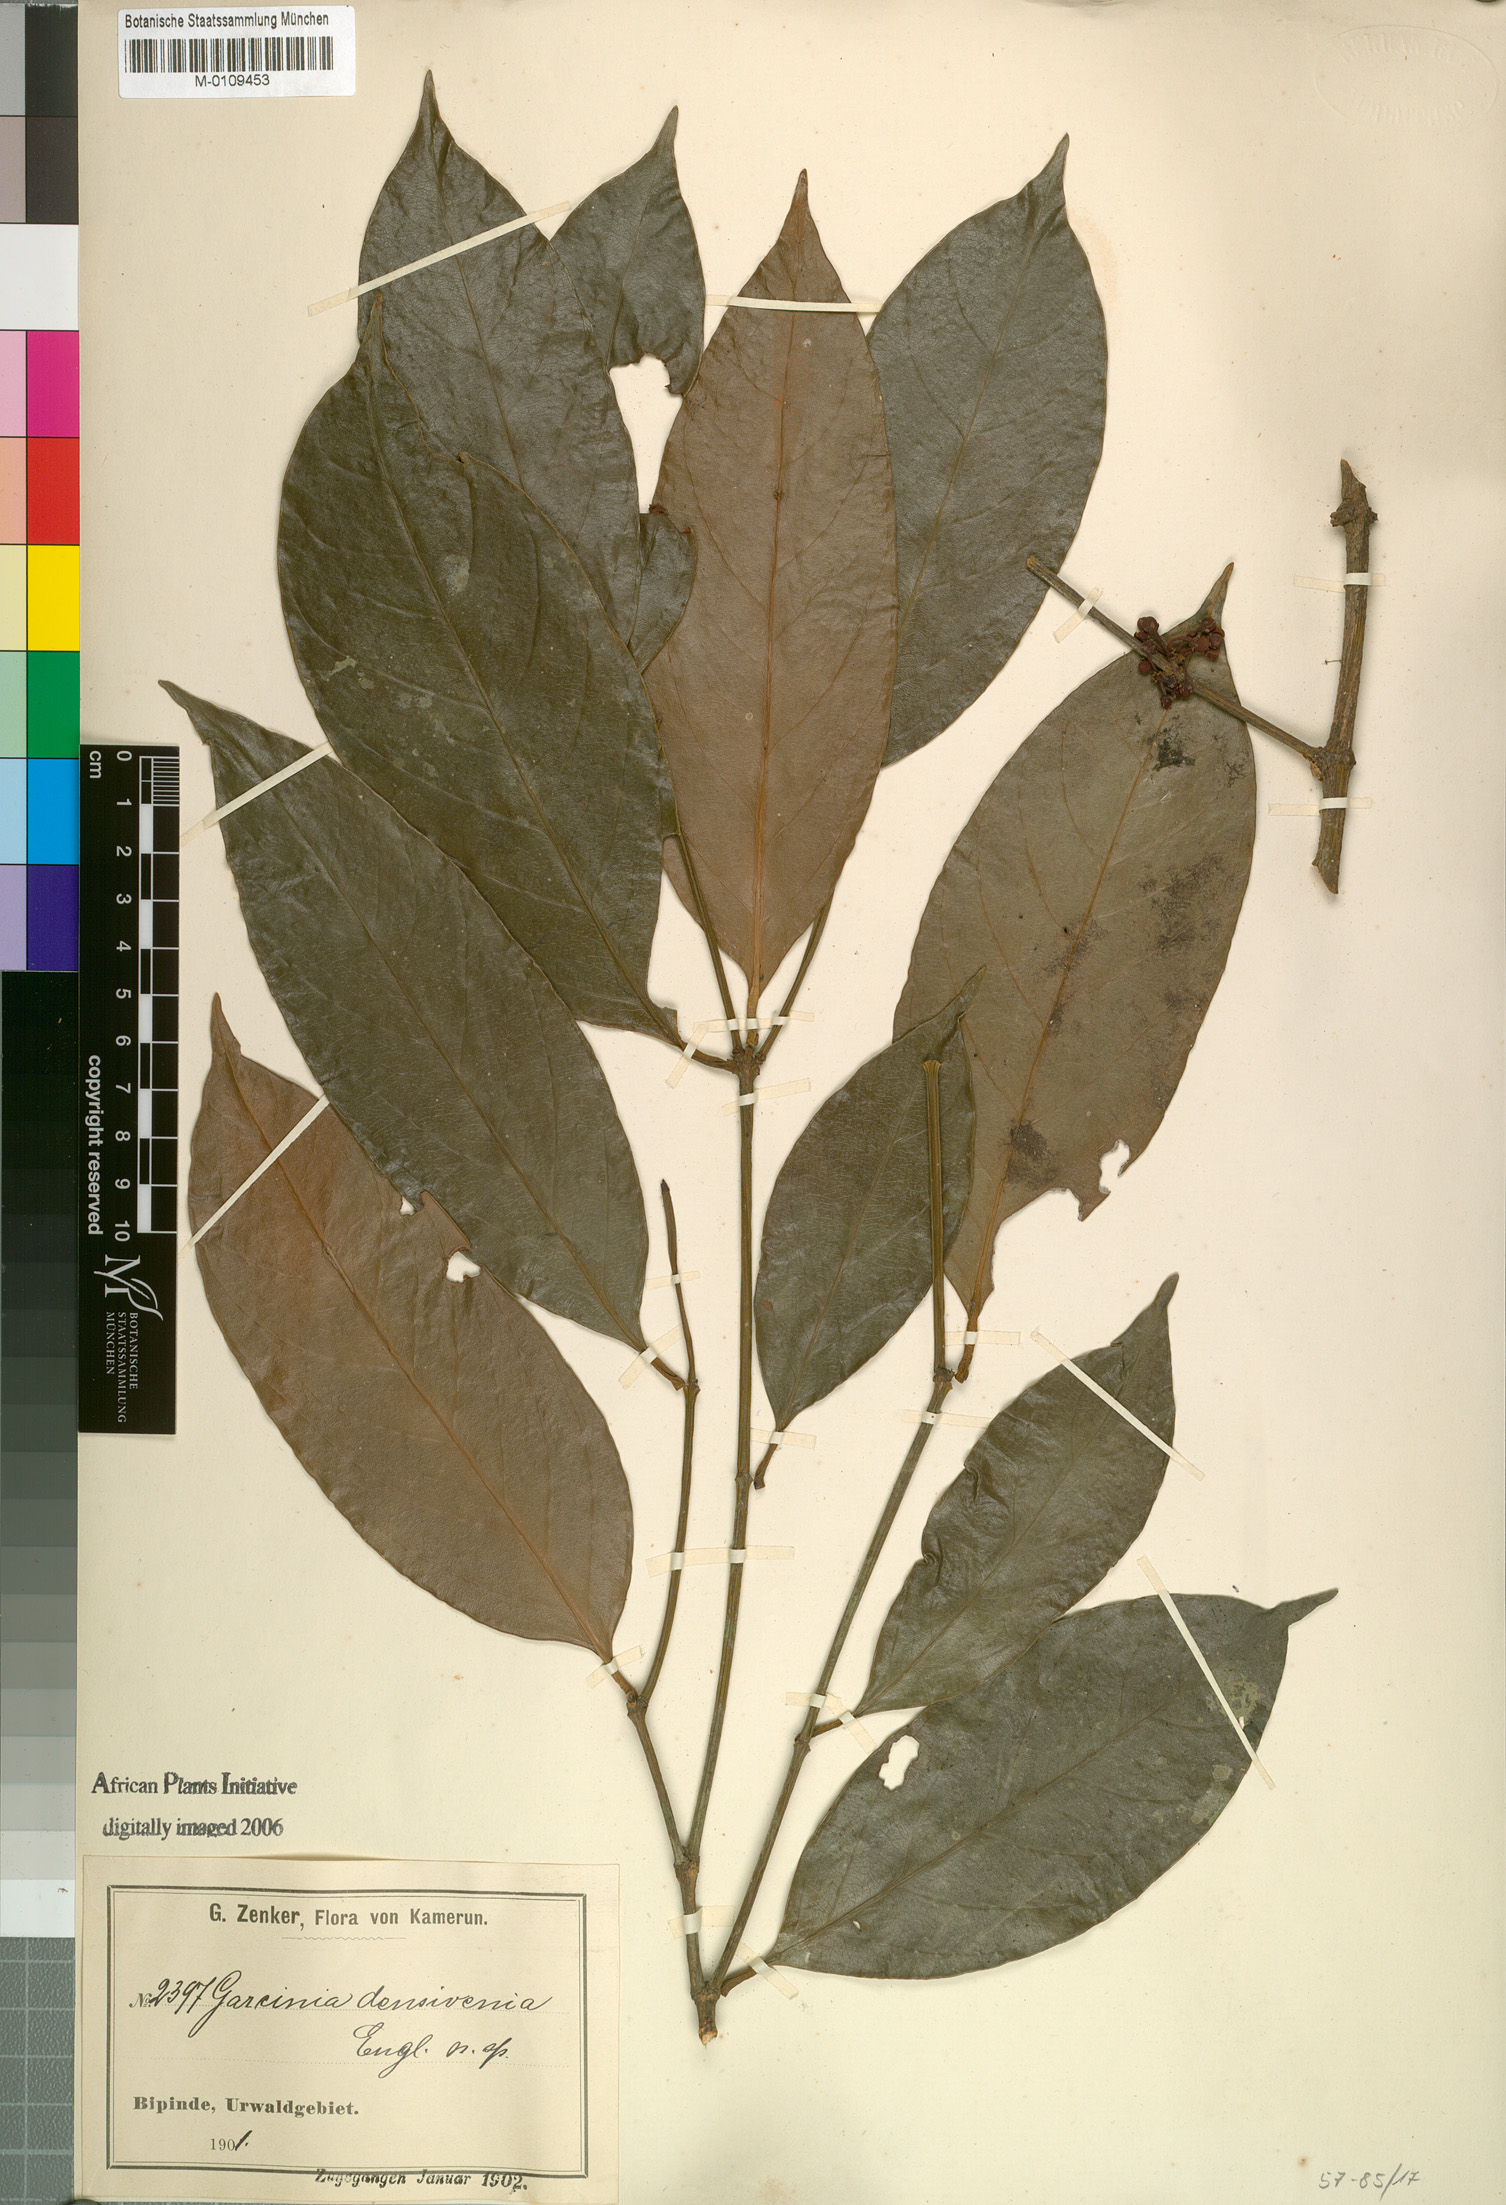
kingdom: Plantae
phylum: Tracheophyta
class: Magnoliopsida
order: Malpighiales
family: Clusiaceae
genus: Garcinia
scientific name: Garcinia densivenia
